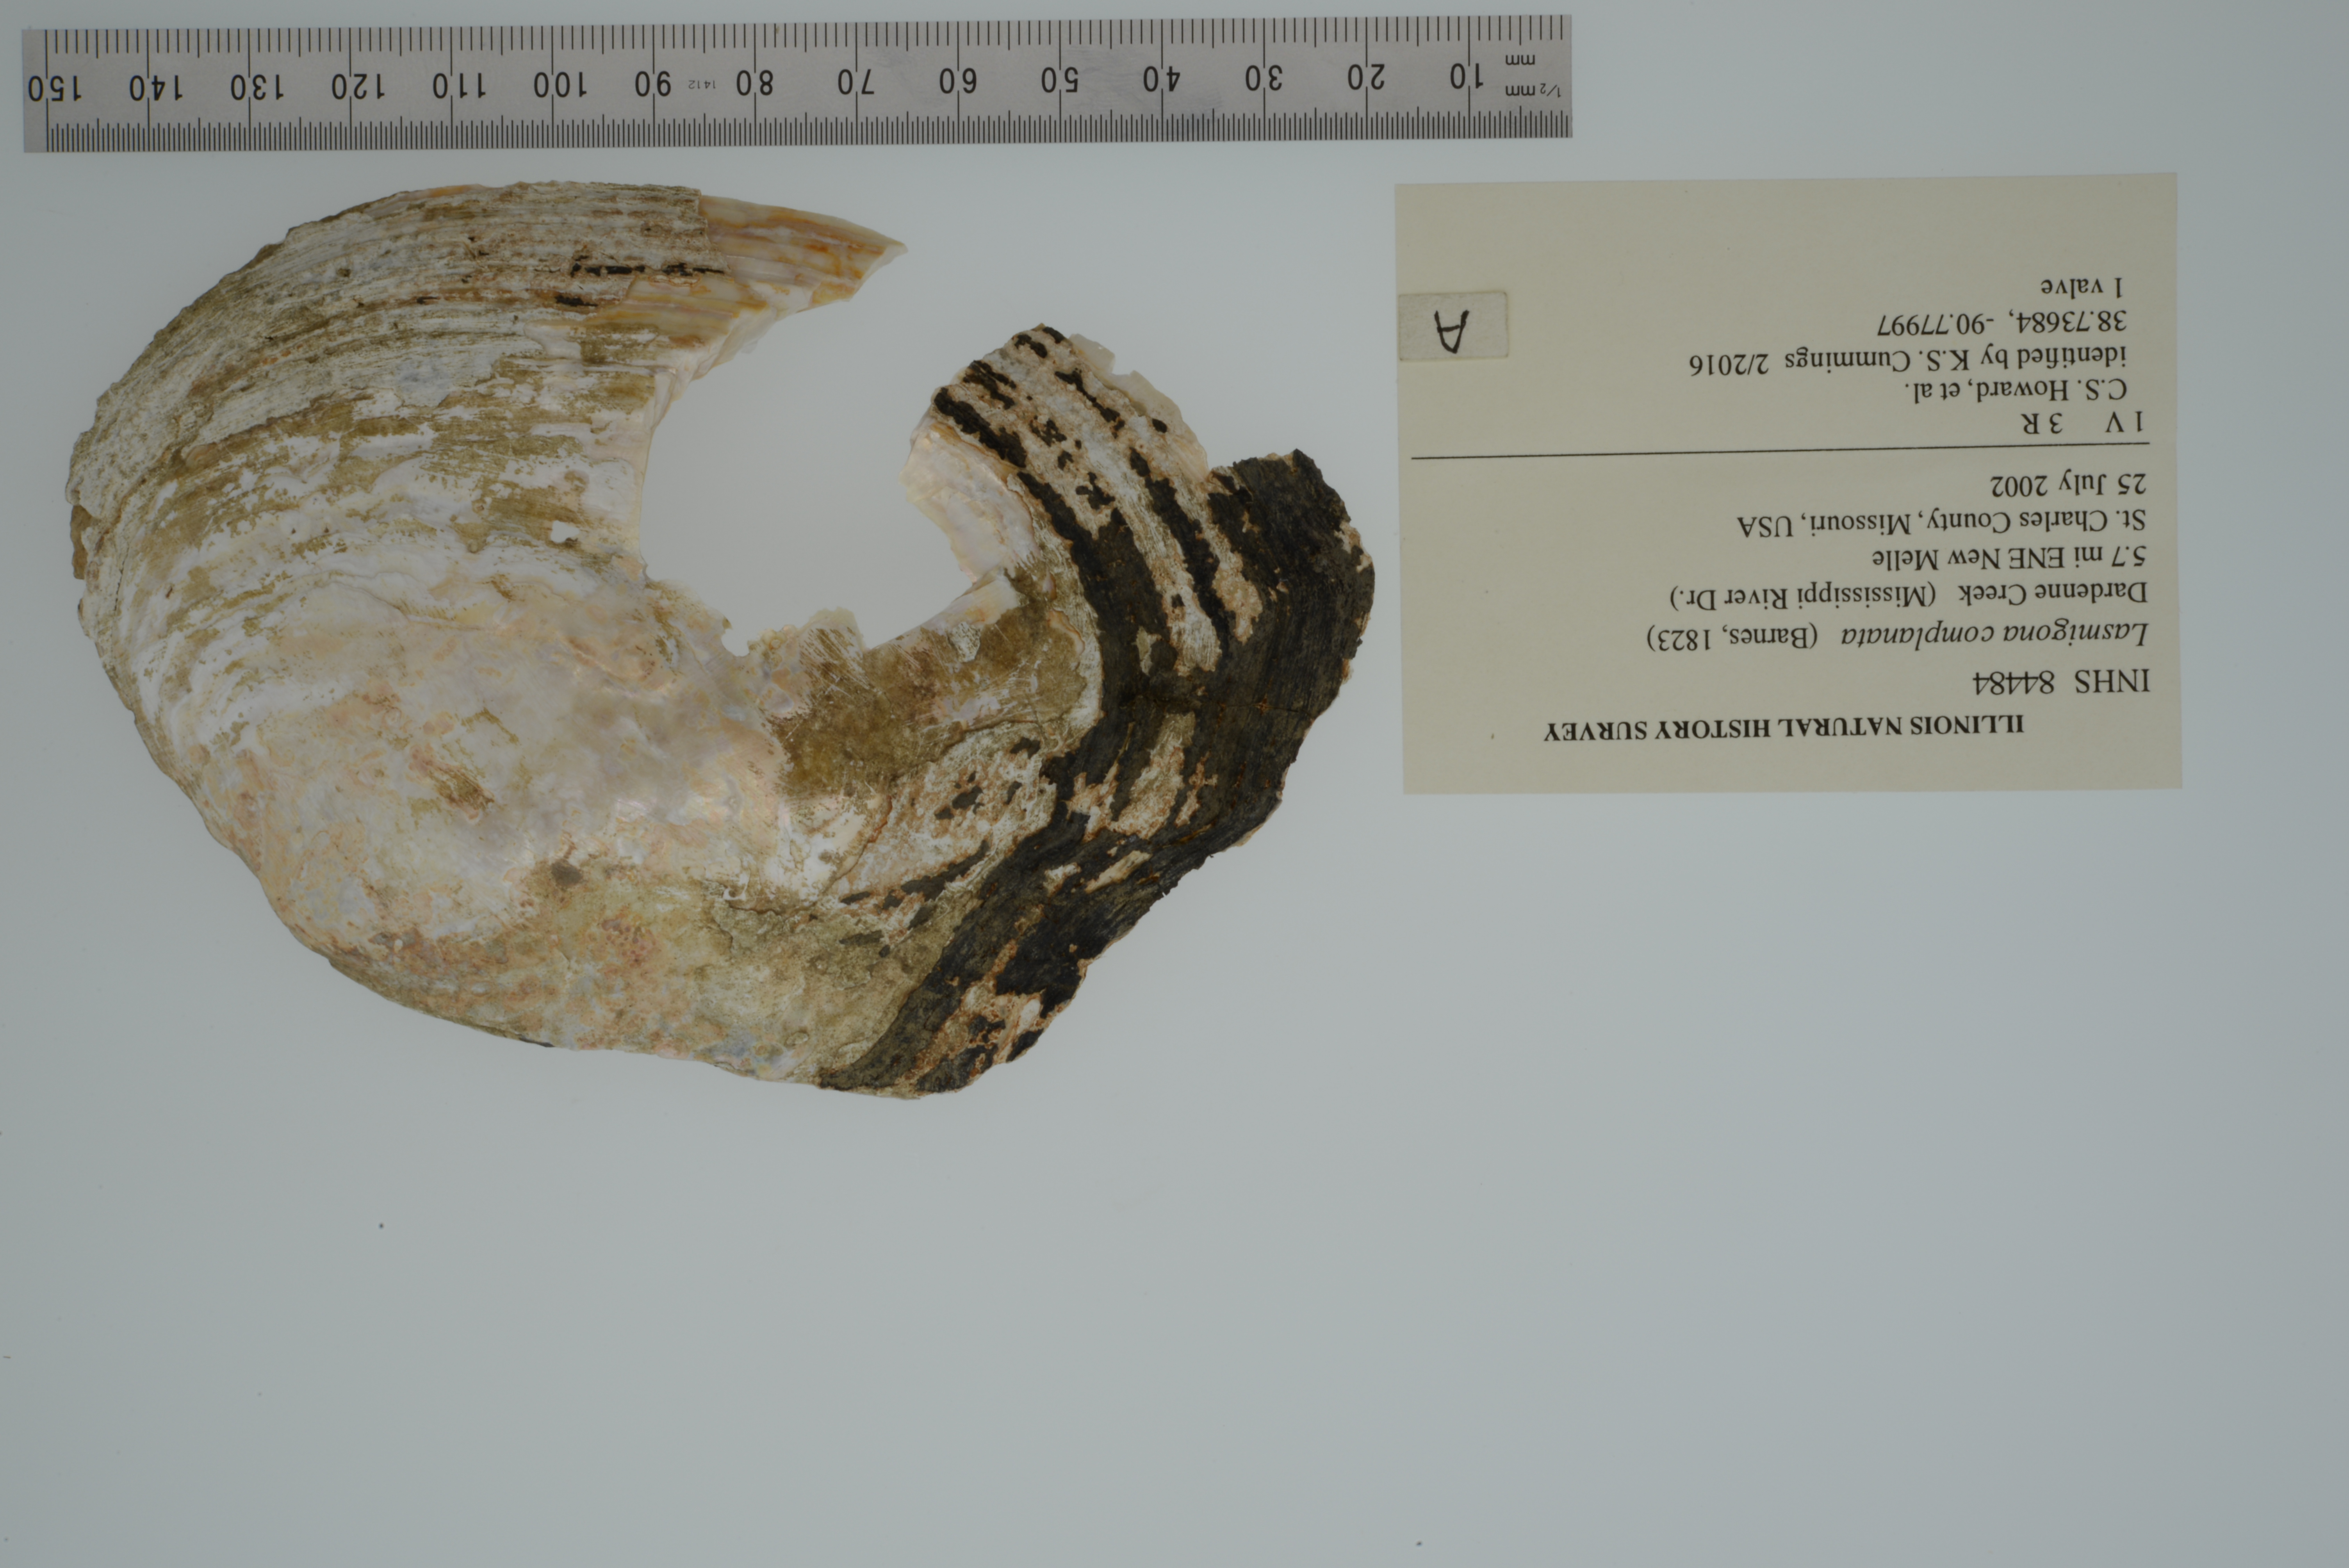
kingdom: Animalia
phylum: Mollusca
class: Bivalvia
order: Unionida
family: Unionidae
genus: Lasmigona
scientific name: Lasmigona complanata
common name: White heelsplitter
